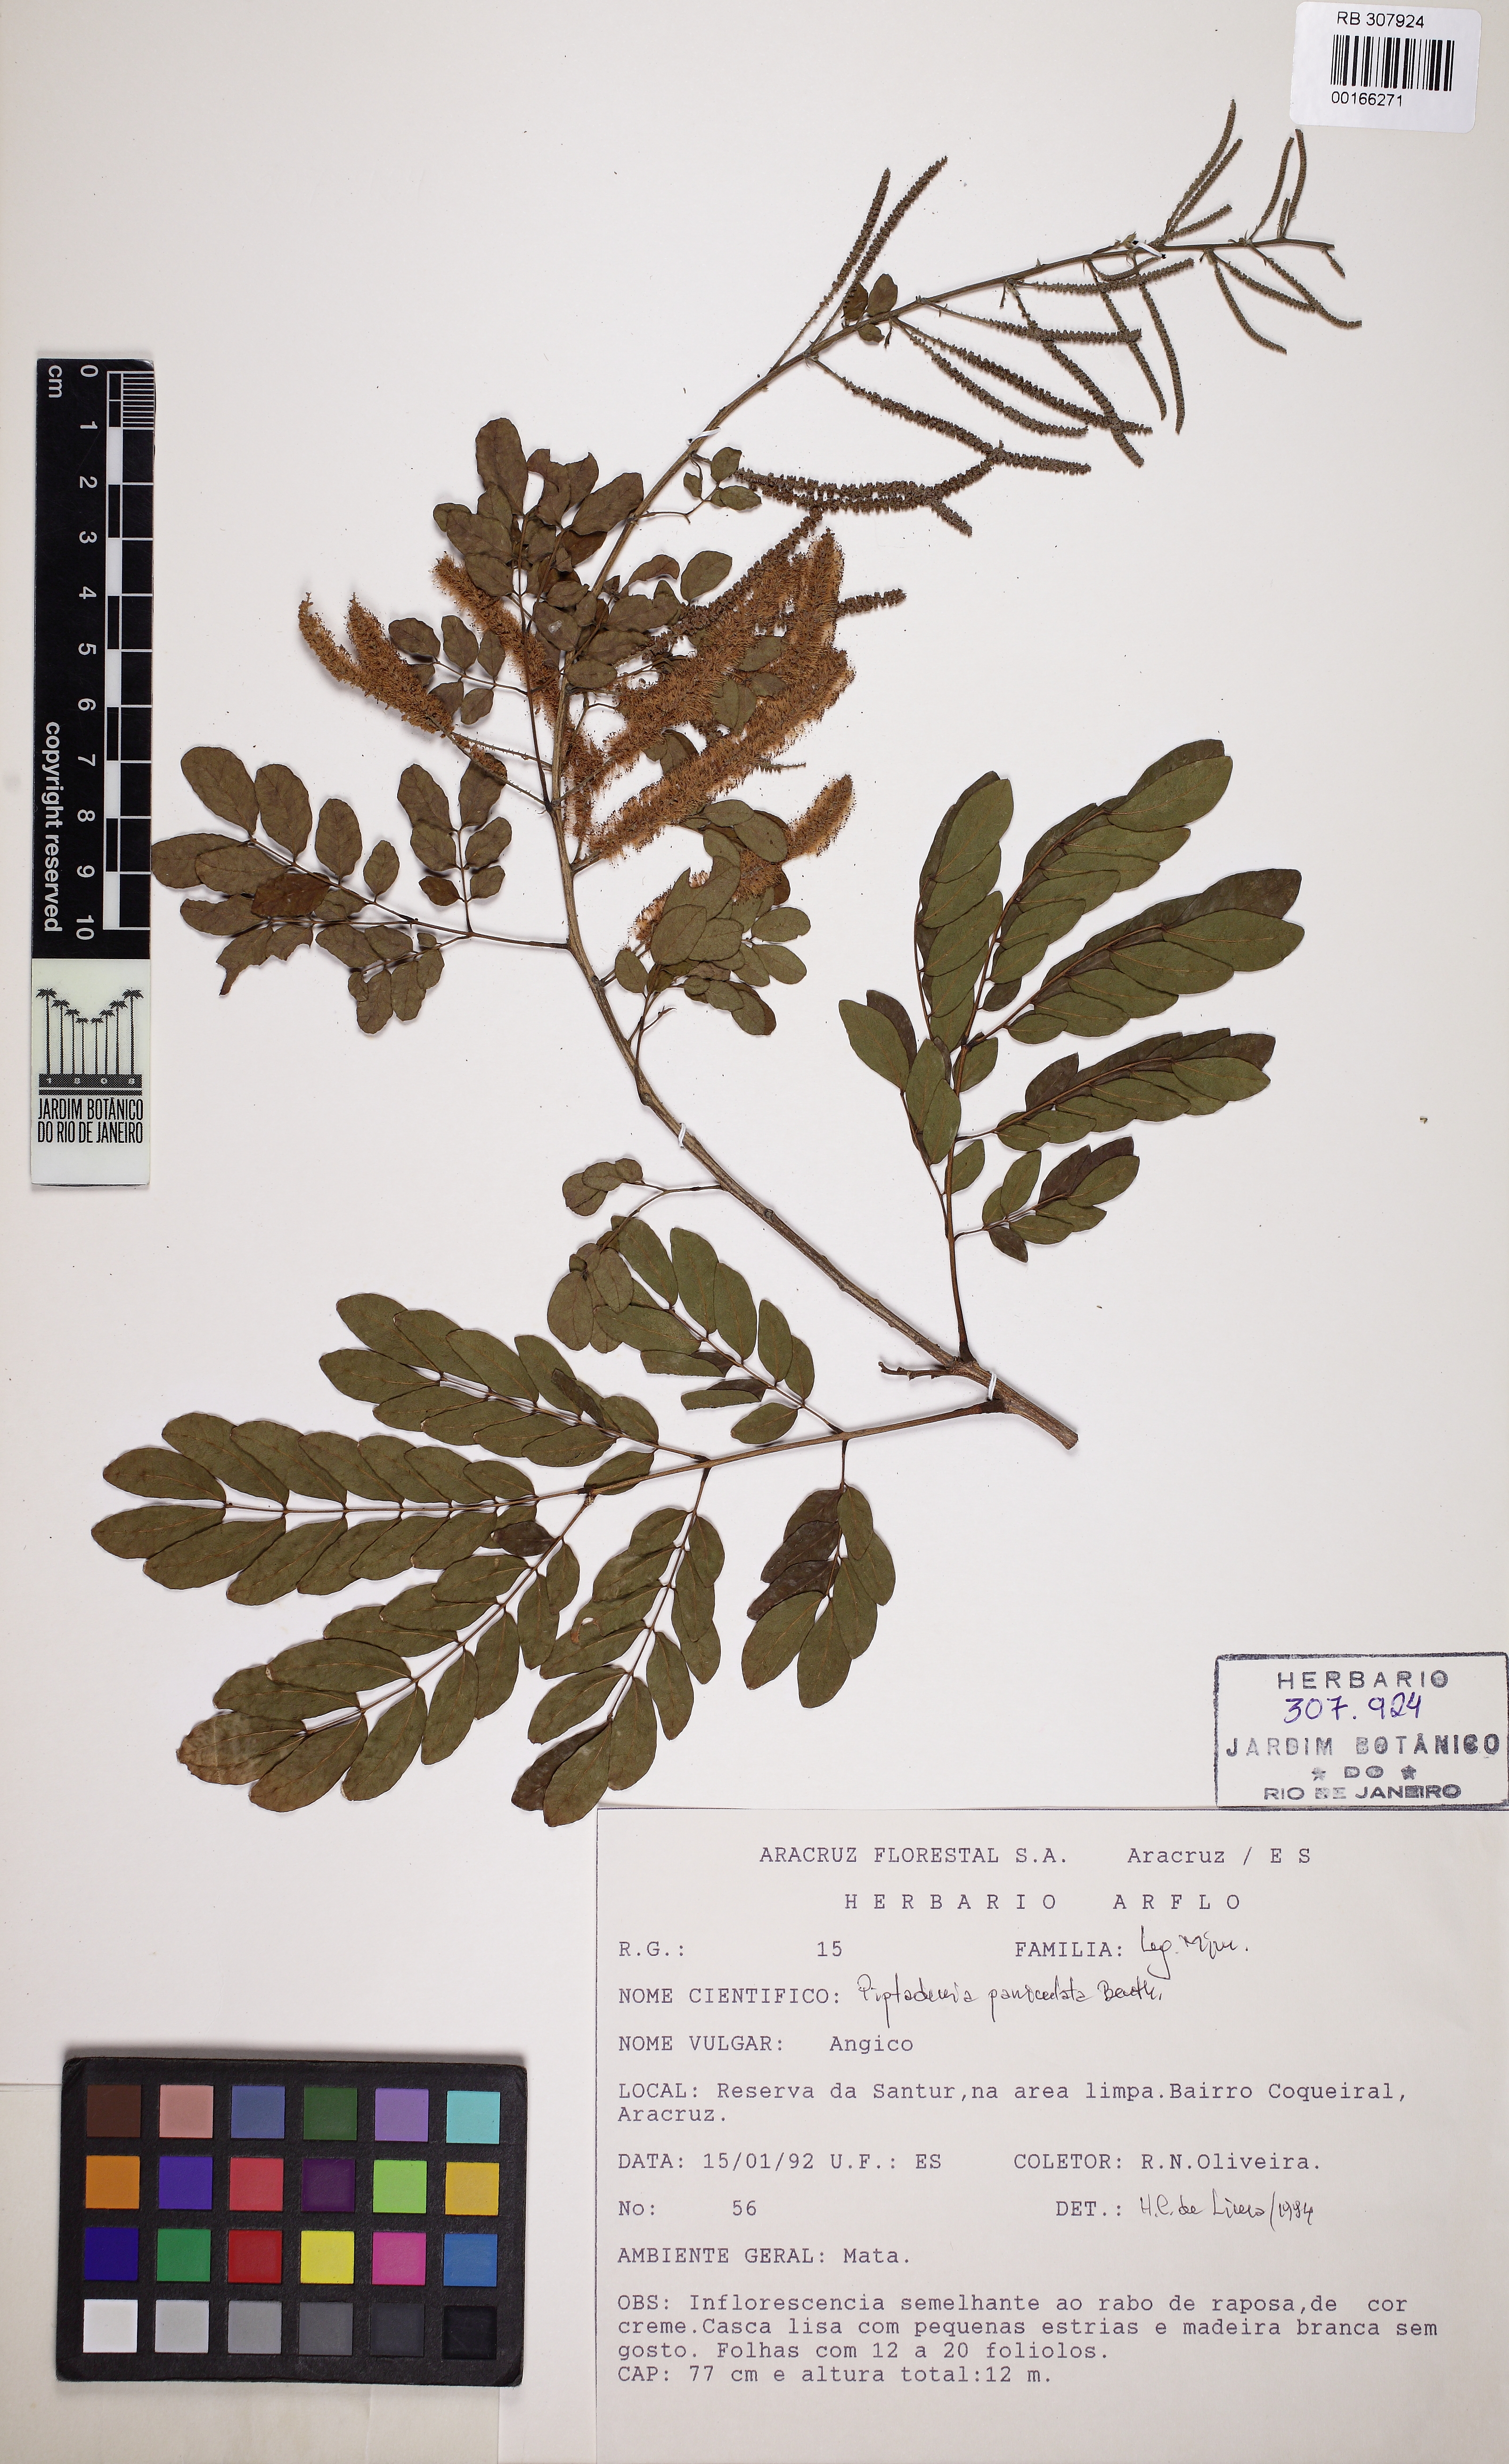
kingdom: Plantae
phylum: Tracheophyta
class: Magnoliopsida
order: Fabales
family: Fabaceae
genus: Piptadenia
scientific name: Piptadenia paniculata
